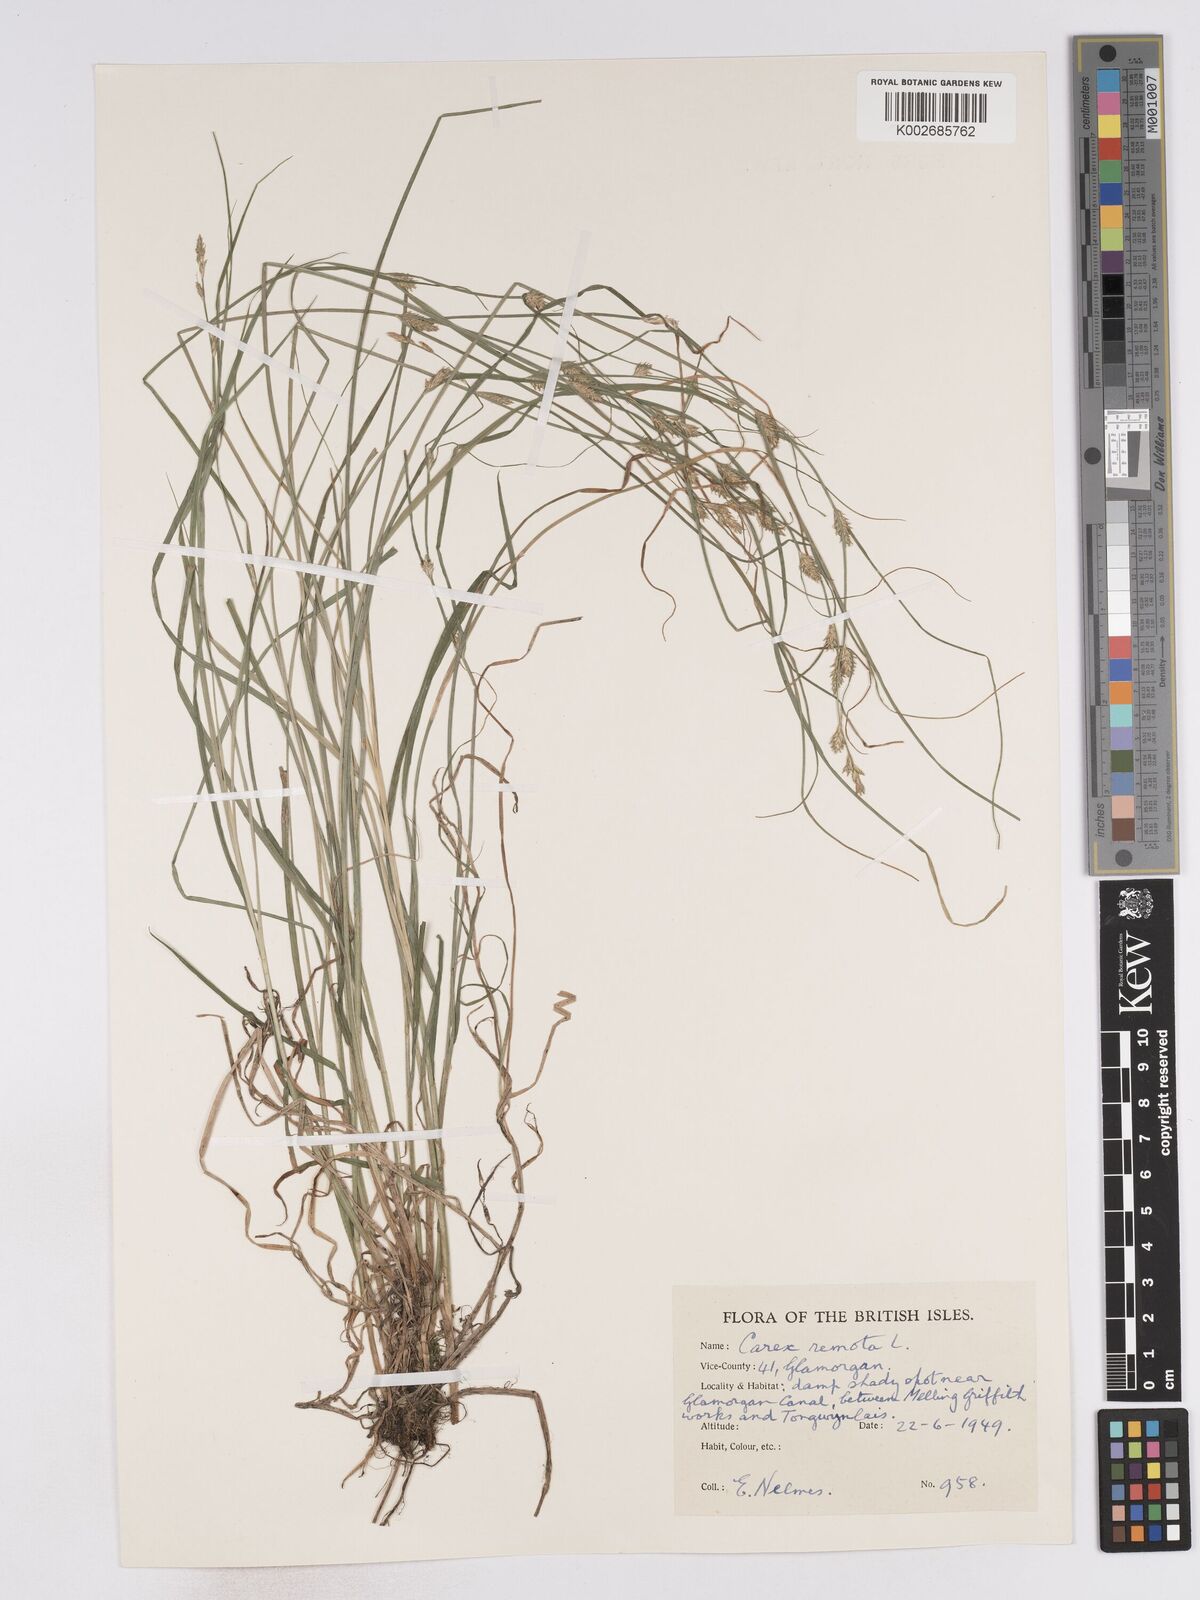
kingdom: Plantae
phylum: Tracheophyta
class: Liliopsida
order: Poales
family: Cyperaceae
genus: Carex
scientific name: Carex remota
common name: Remote sedge
